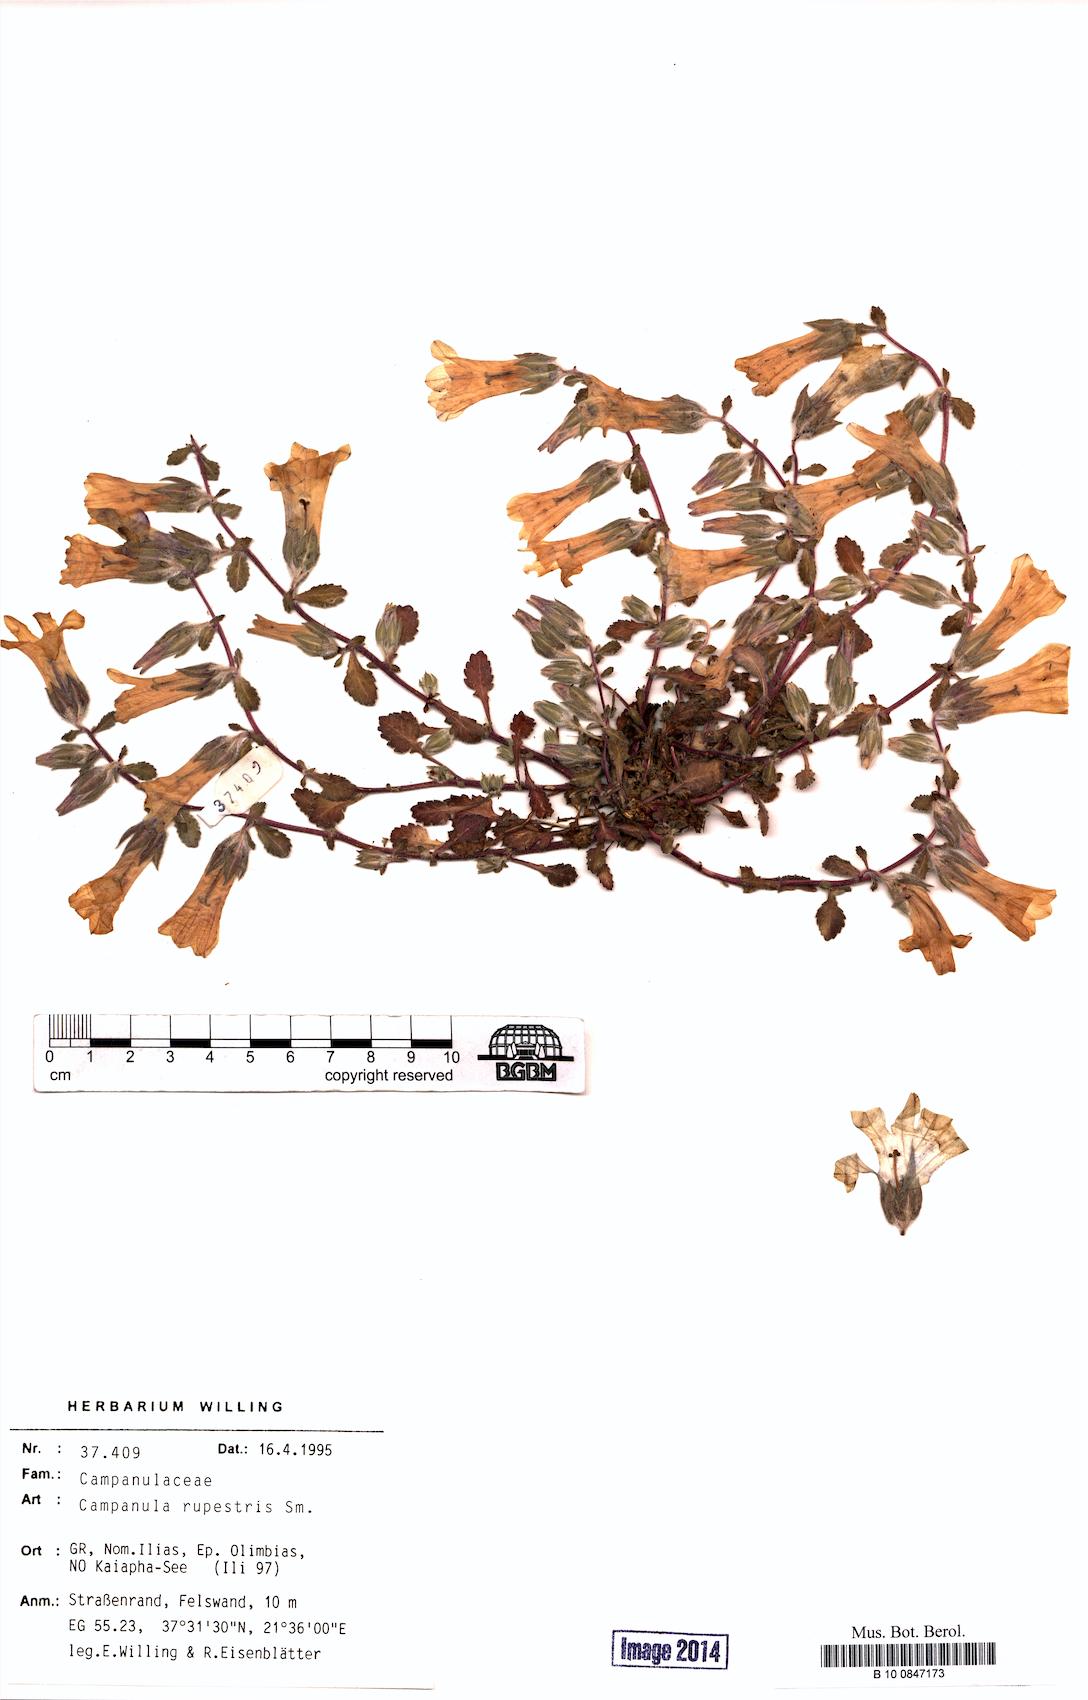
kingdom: Plantae
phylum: Tracheophyta
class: Magnoliopsida
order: Asterales
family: Campanulaceae
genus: Campanula
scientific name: Campanula rupestris
